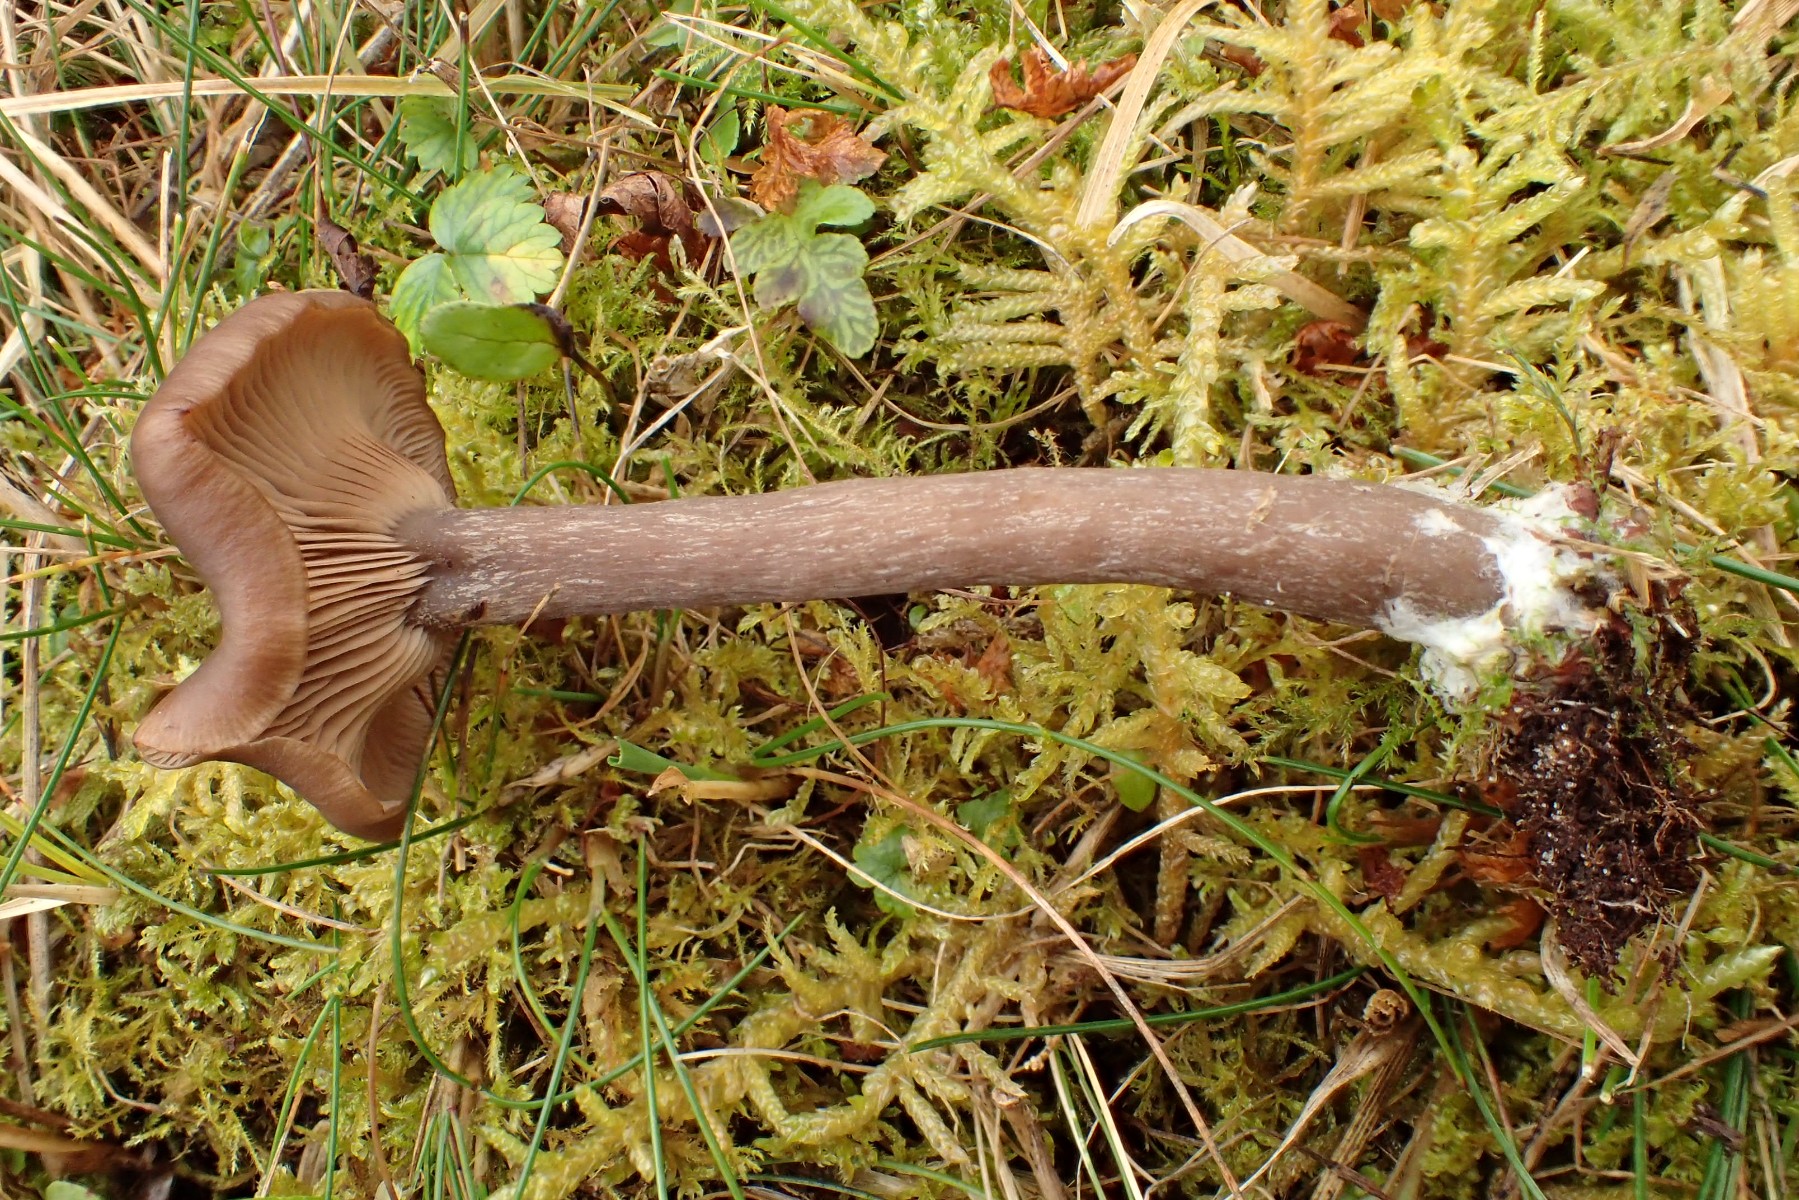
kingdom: Fungi
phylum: Basidiomycota
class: Agaricomycetes
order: Agaricales
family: Pseudoclitocybaceae
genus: Pseudoclitocybe
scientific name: Pseudoclitocybe expallens
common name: lille bægertragthat
